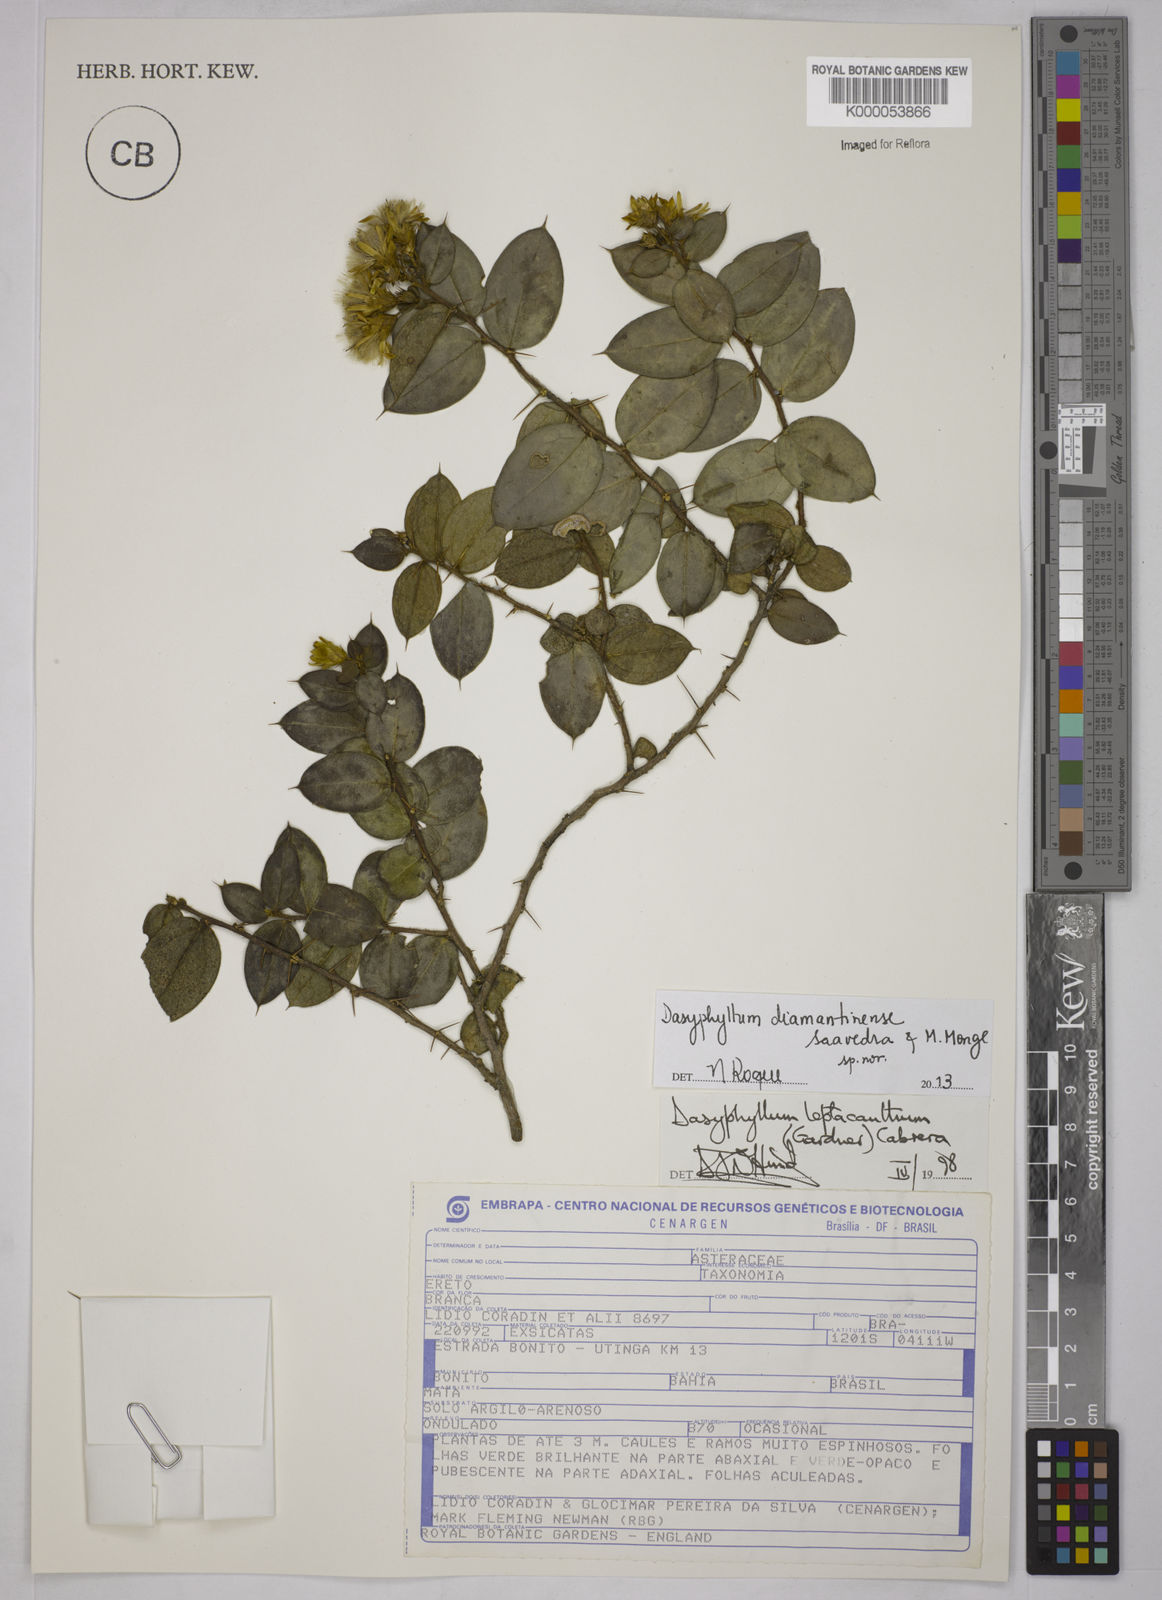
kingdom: Plantae
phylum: Tracheophyta
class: Magnoliopsida
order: Asterales
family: Asteraceae
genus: Dasyphyllum
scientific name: Dasyphyllum leptacanthum
